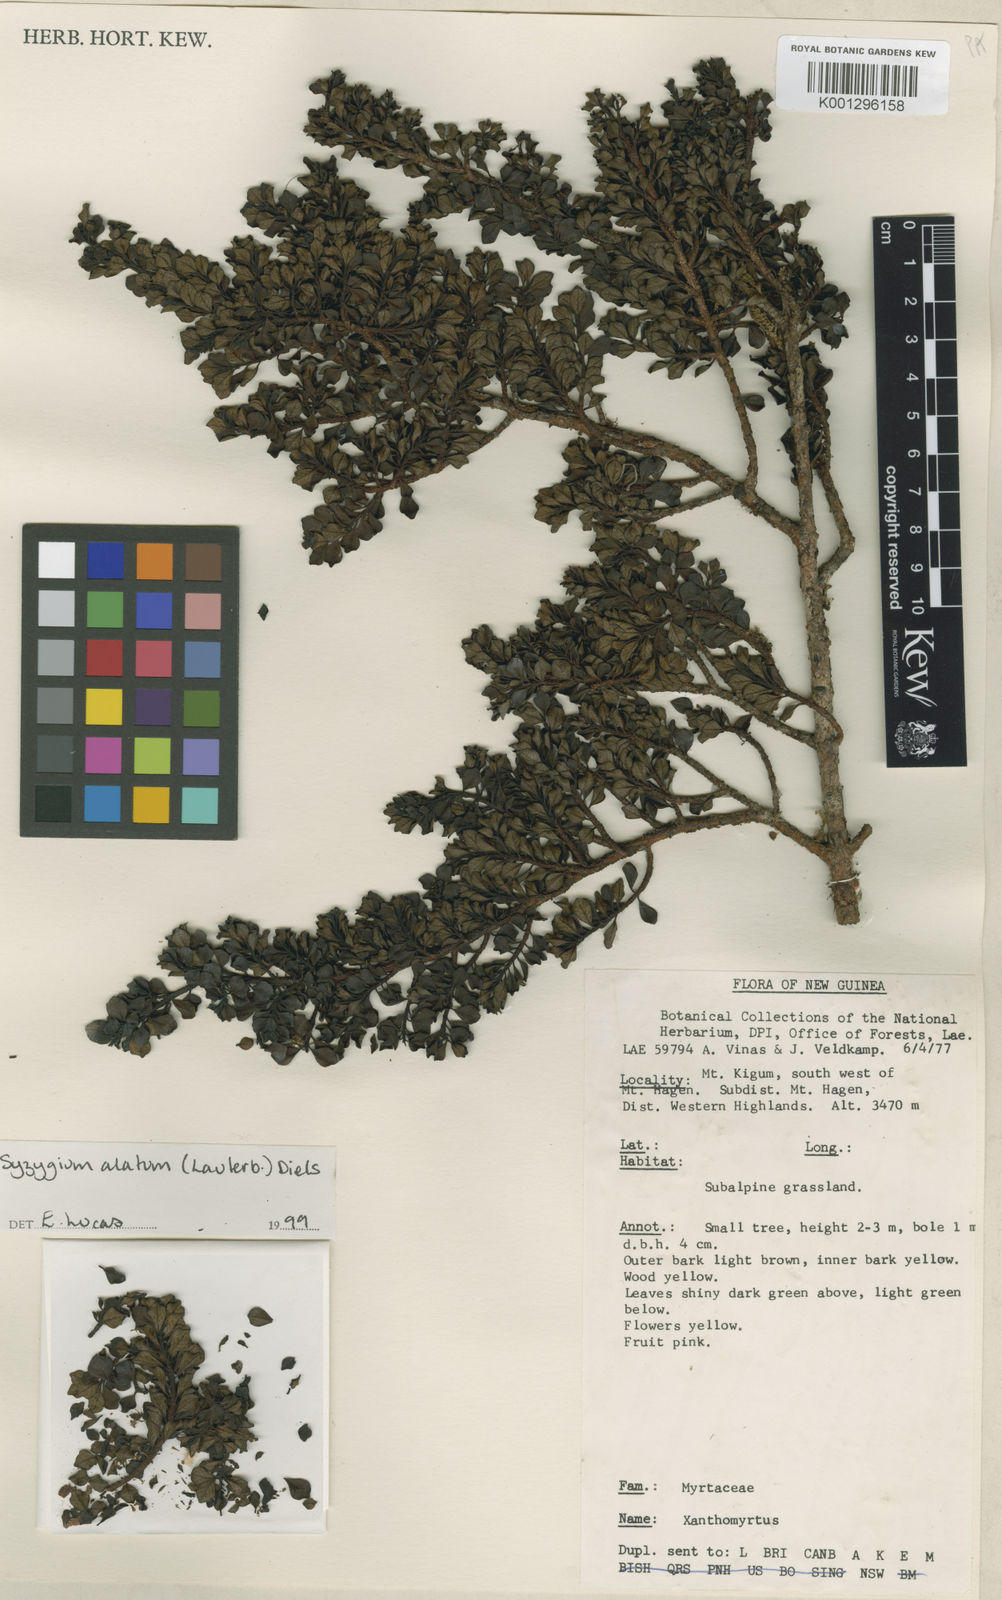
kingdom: Plantae
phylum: Tracheophyta
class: Magnoliopsida
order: Myrtales
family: Myrtaceae
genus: Syzygium
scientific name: Syzygium alatum
